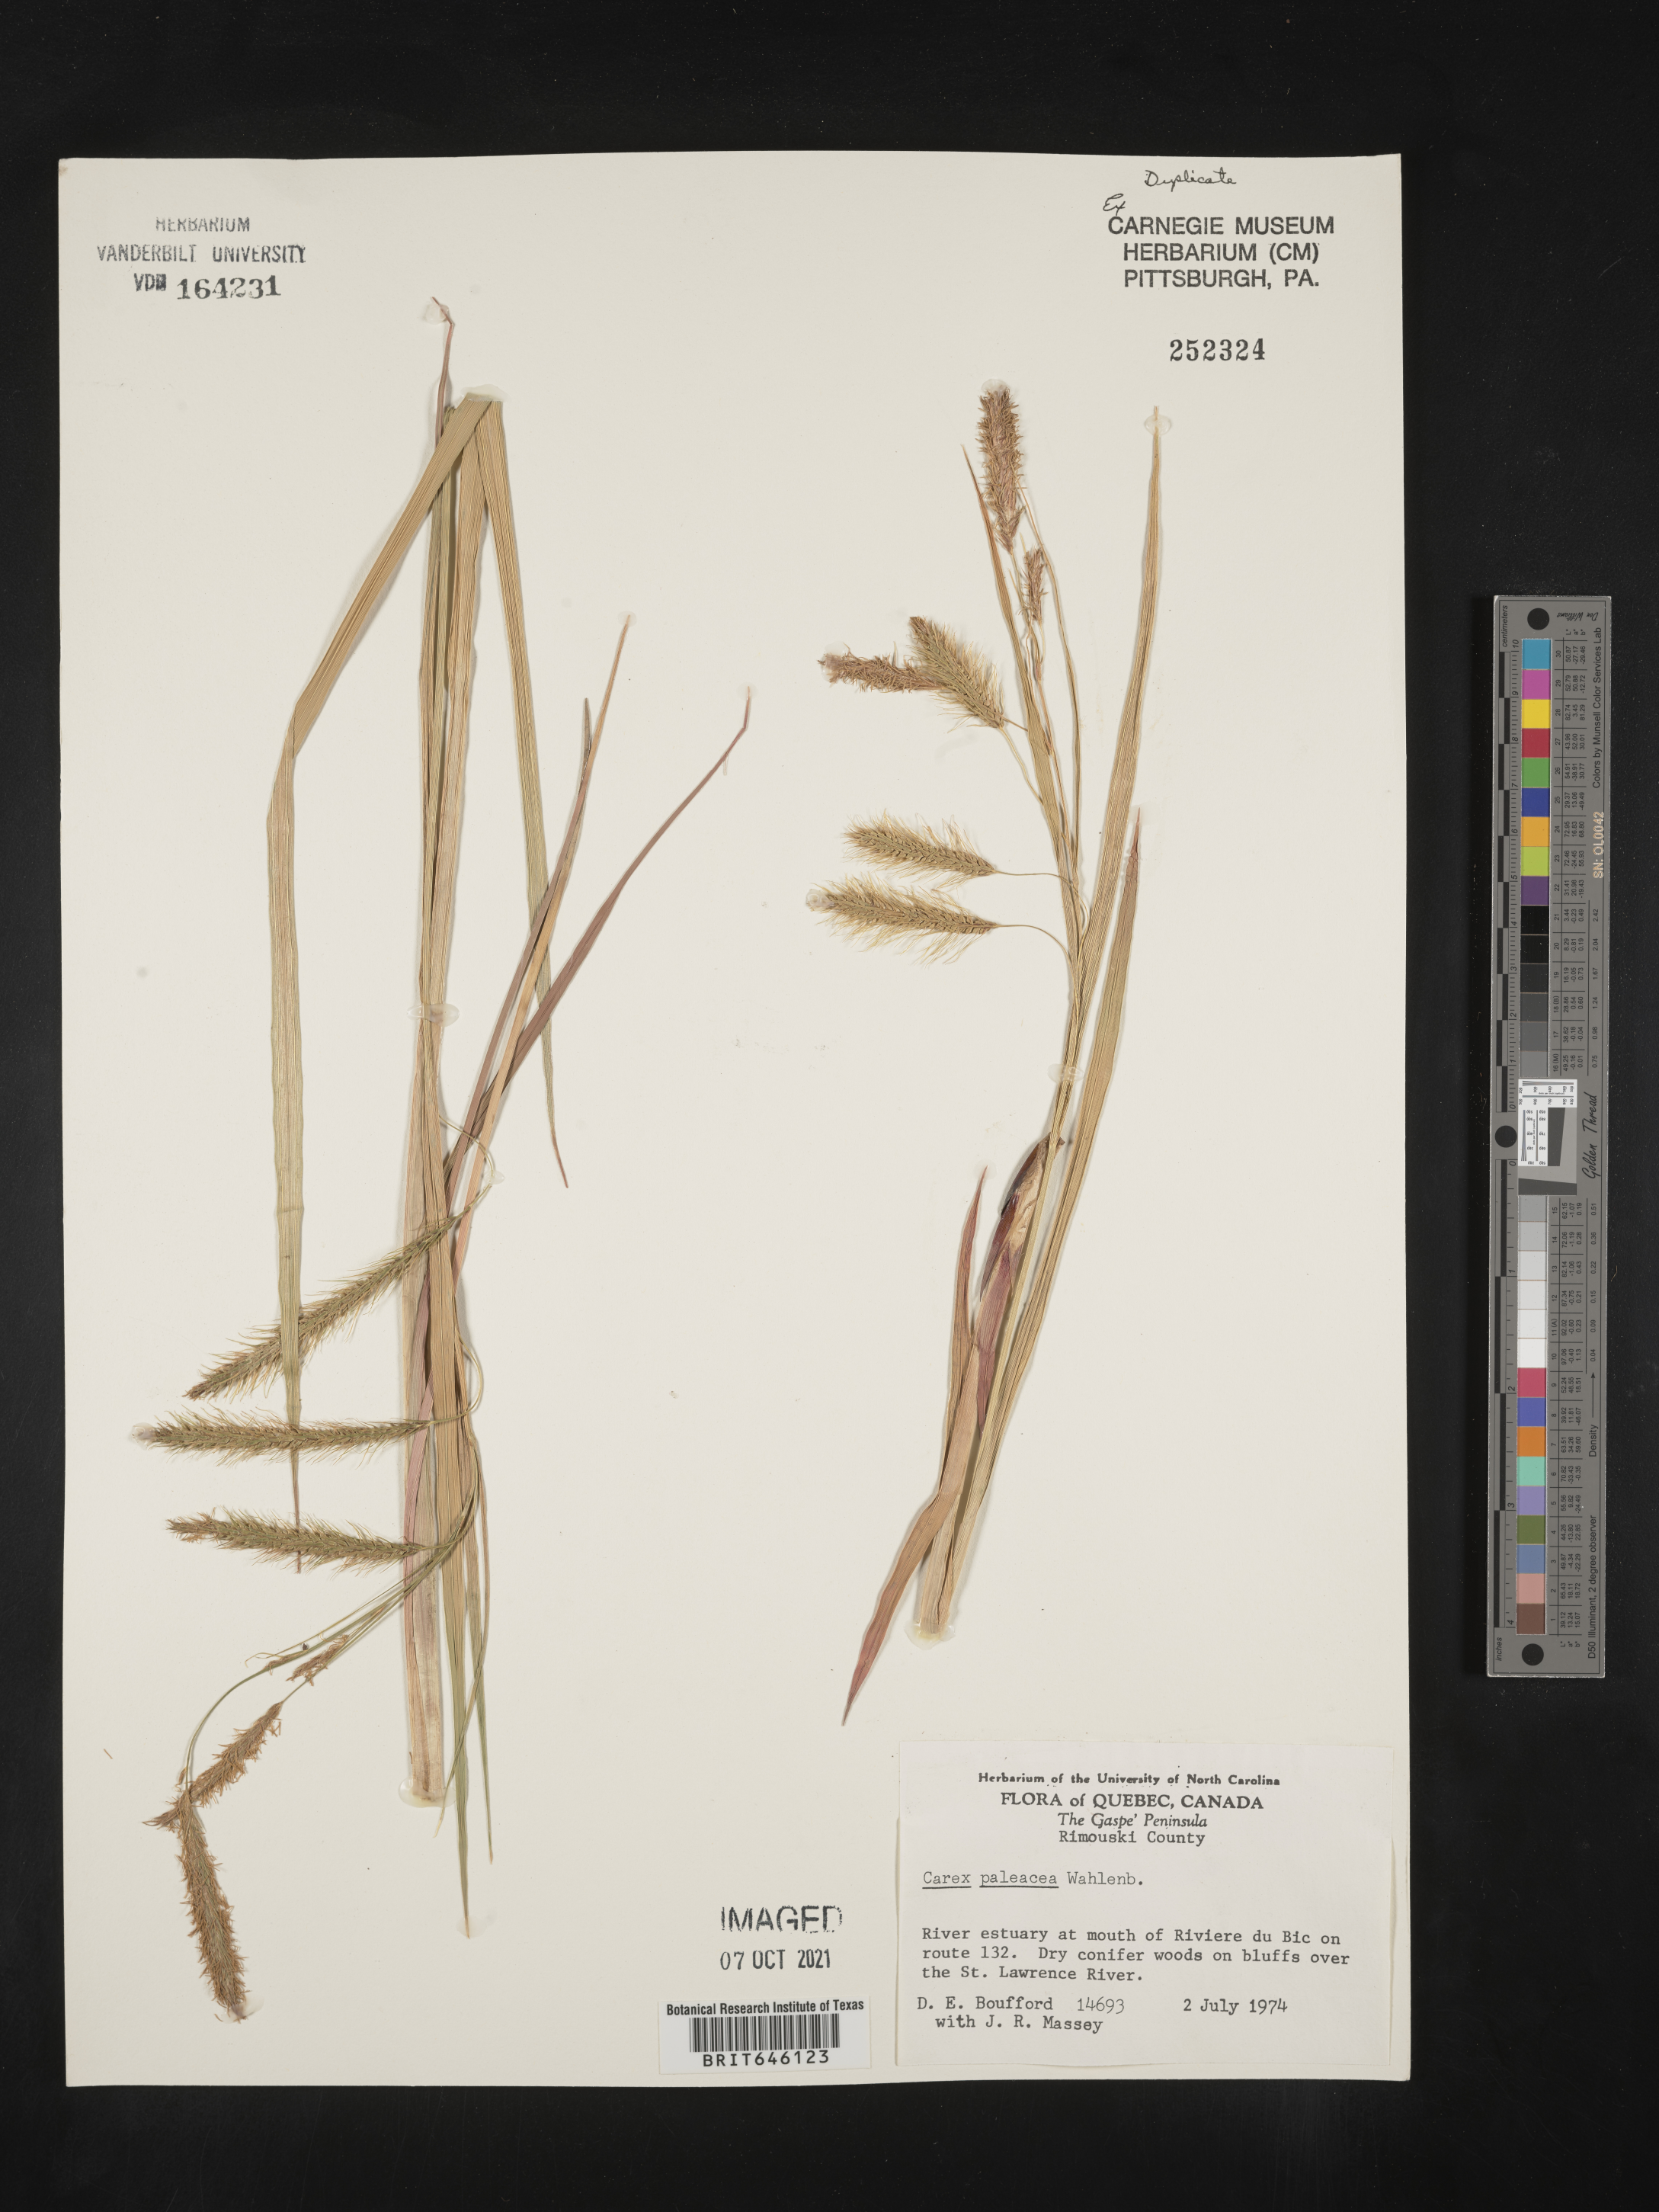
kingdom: Plantae
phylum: Tracheophyta
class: Liliopsida
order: Poales
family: Cyperaceae
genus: Carex
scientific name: Carex paleacea
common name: Chaffy sedge
